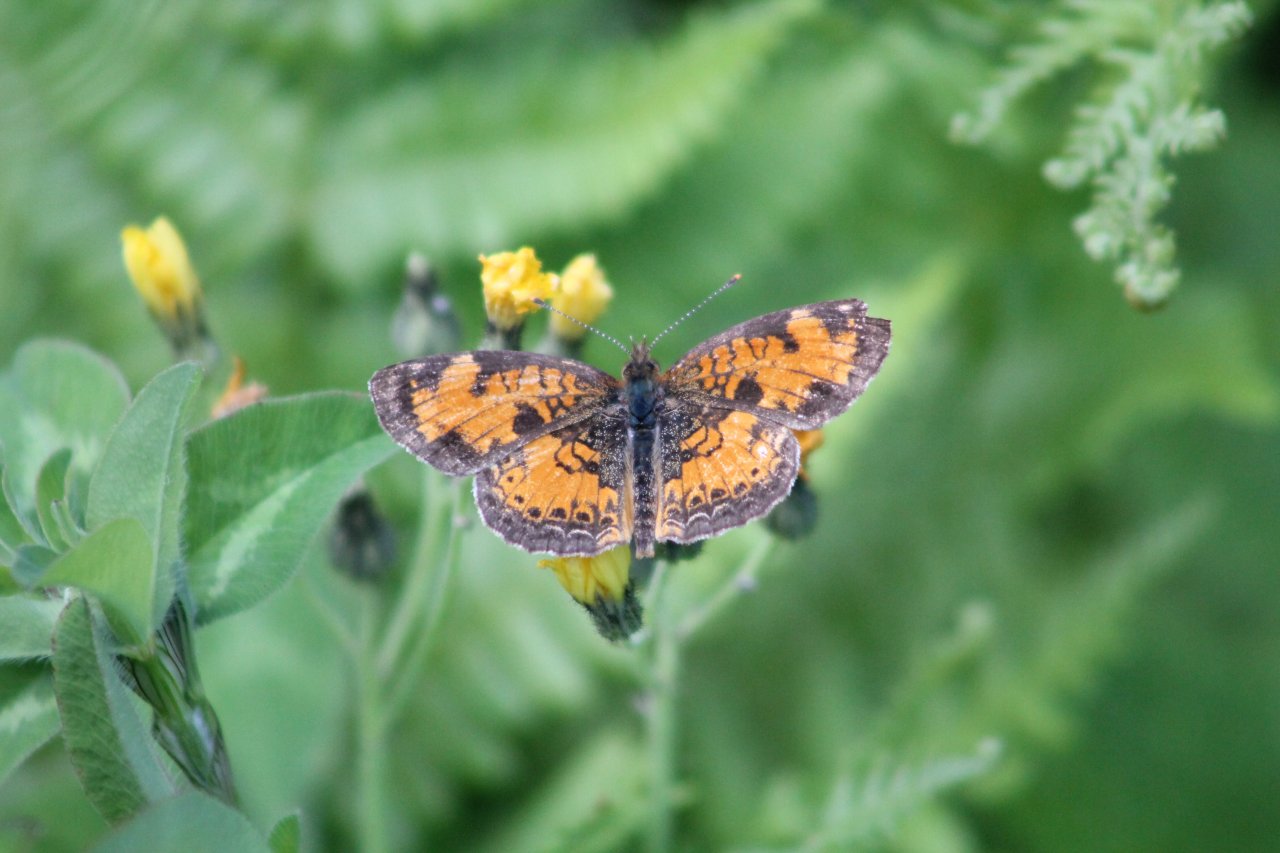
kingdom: Animalia
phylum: Arthropoda
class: Insecta
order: Lepidoptera
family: Nymphalidae
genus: Phyciodes
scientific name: Phyciodes tharos
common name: Pearl Crescent
